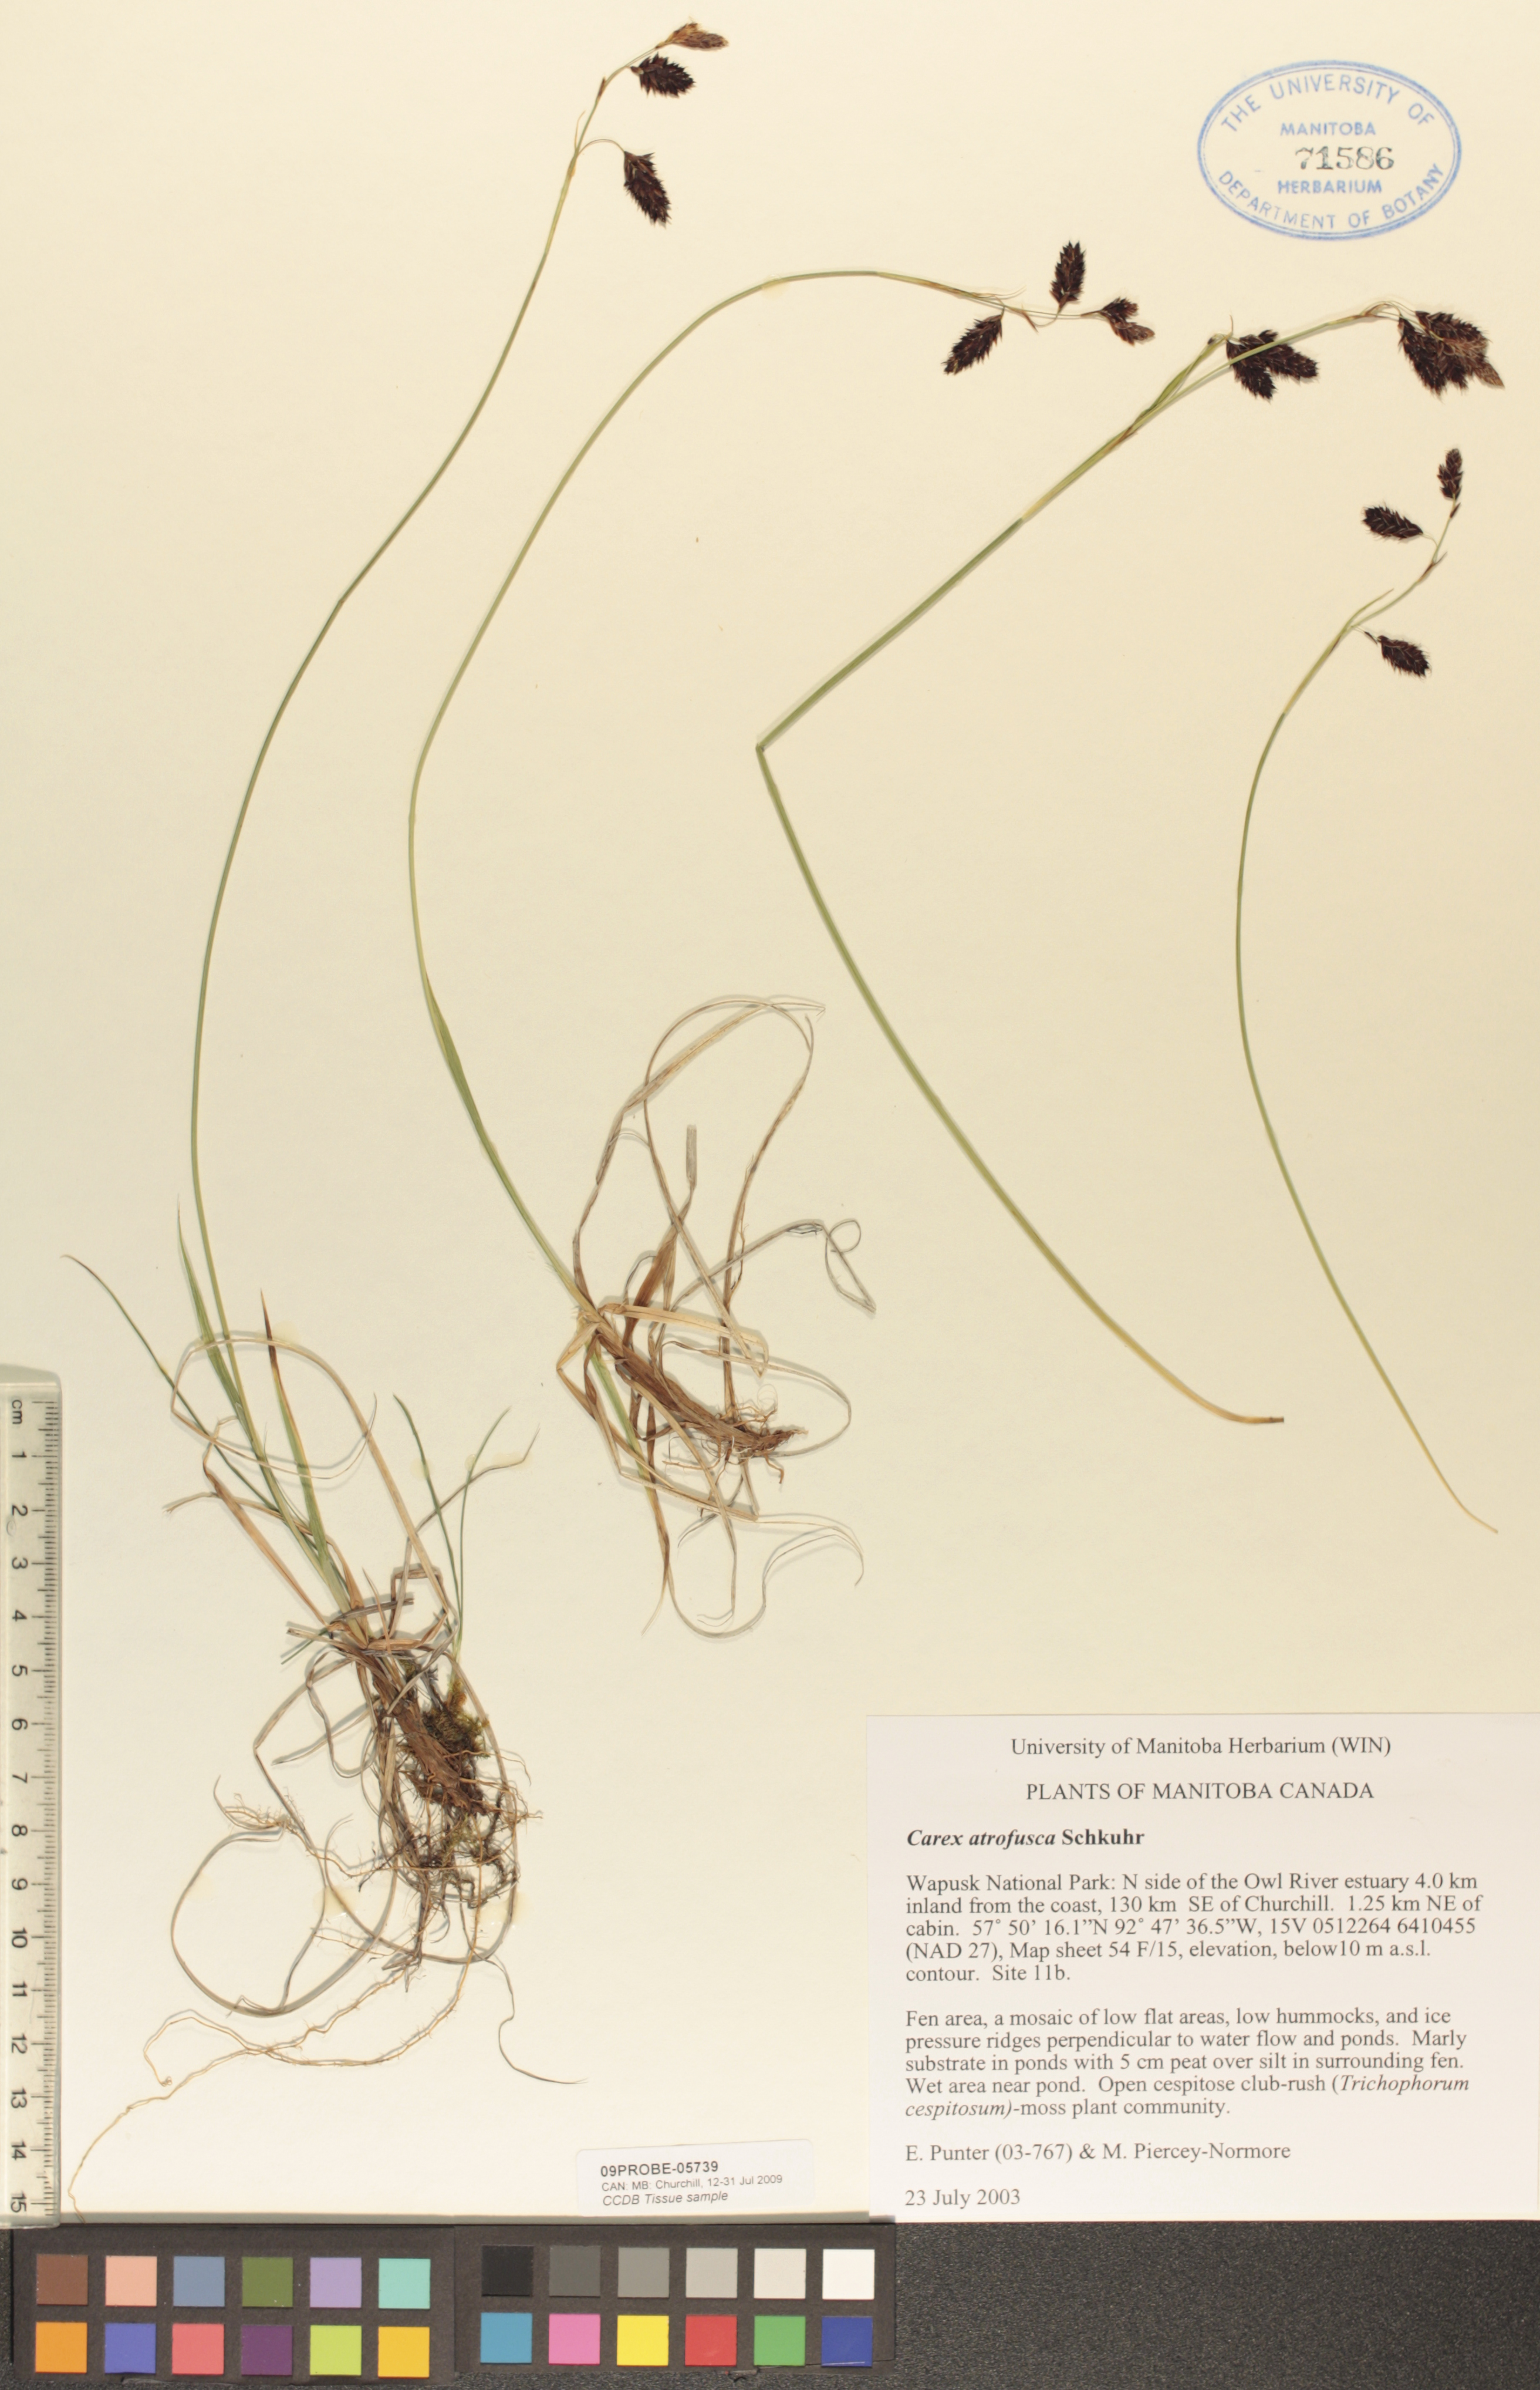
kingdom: Plantae
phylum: Tracheophyta
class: Liliopsida
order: Poales
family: Cyperaceae
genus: Carex
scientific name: Carex pichinchensis
